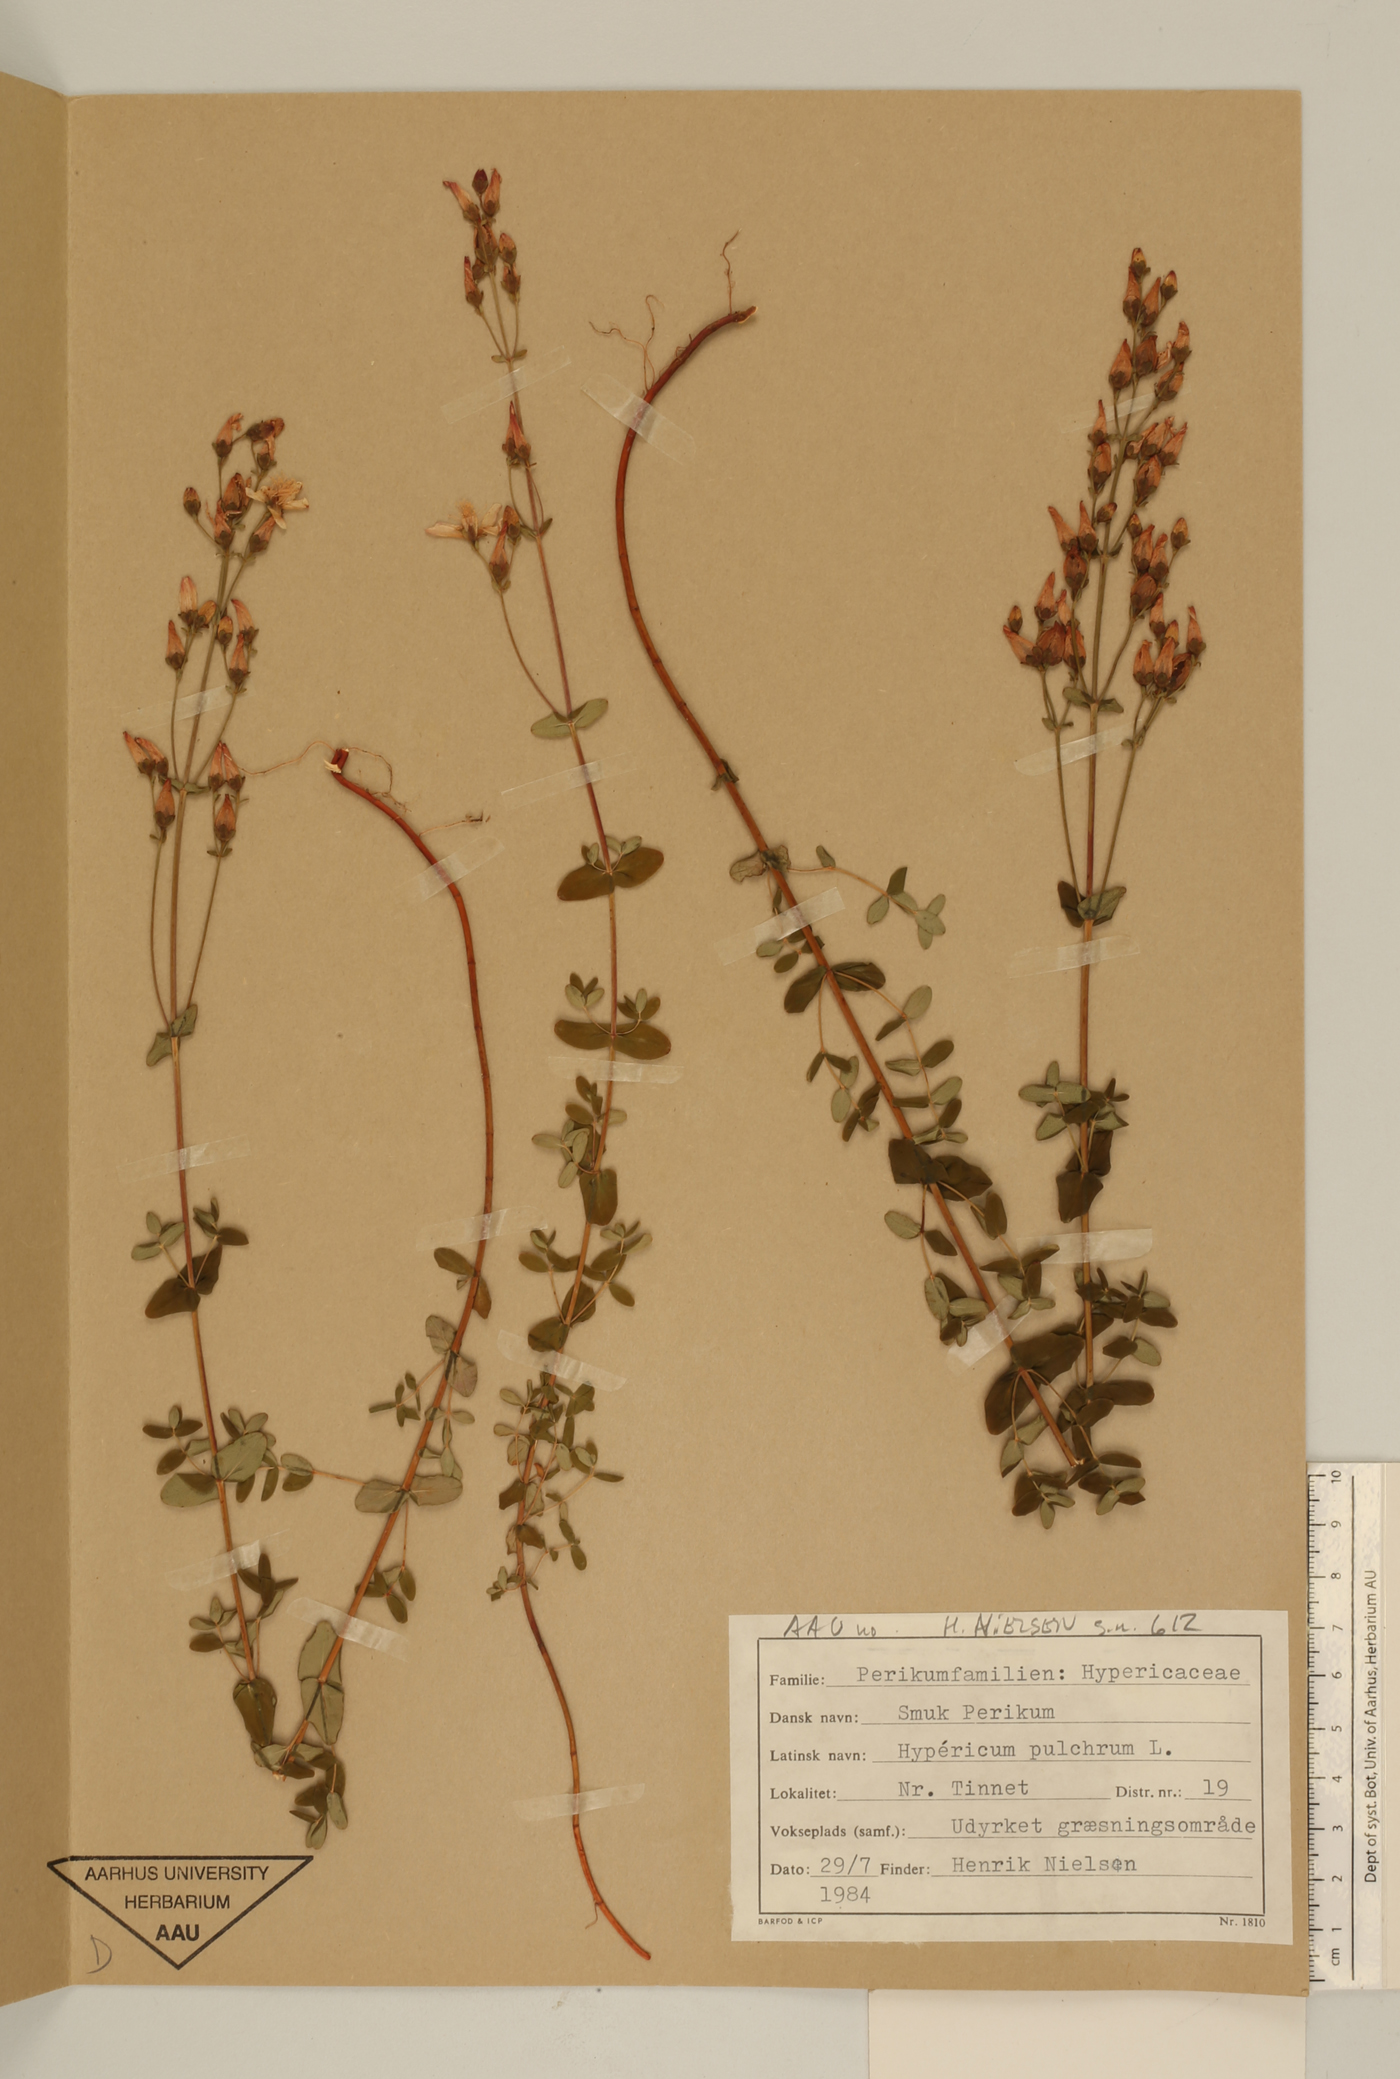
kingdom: Plantae
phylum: Tracheophyta
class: Magnoliopsida
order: Malpighiales
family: Hypericaceae
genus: Hypericum
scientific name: Hypericum pulchrum
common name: Slender st. john's-wort
